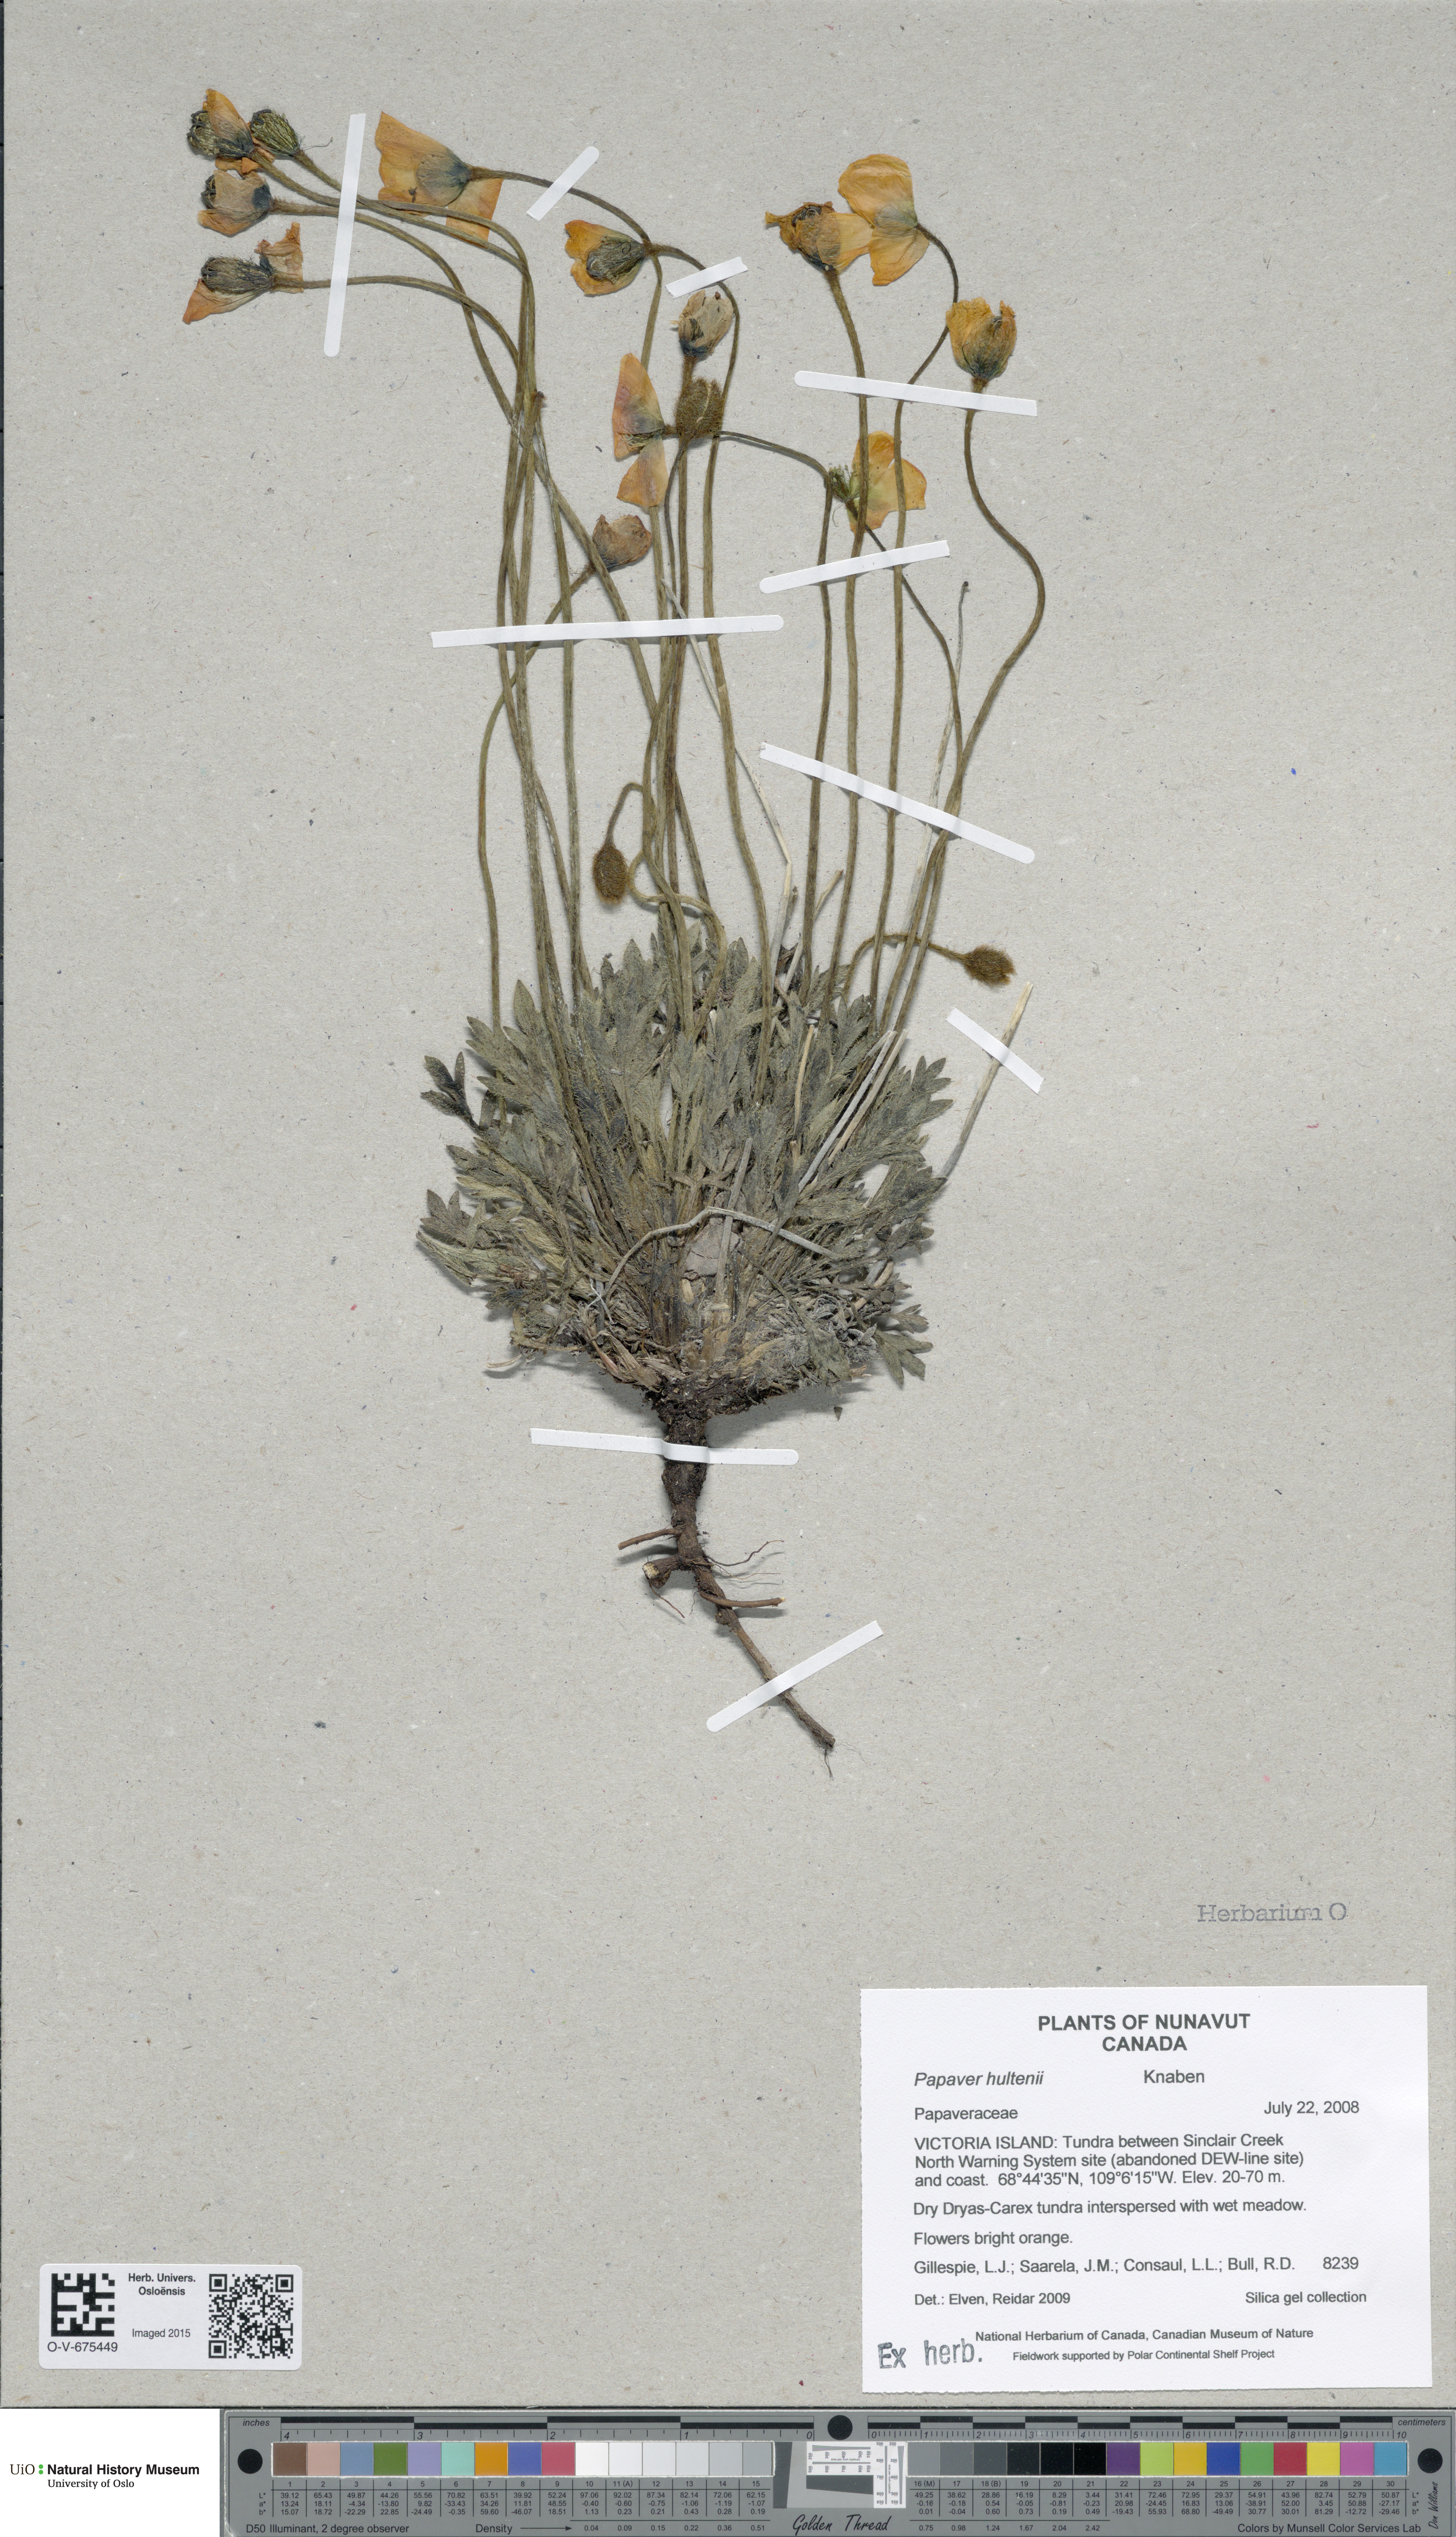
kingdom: Plantae
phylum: Tracheophyta
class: Magnoliopsida
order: Ranunculales
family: Papaveraceae
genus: Papaver
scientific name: Papaver lapponicum
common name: Lapland poppy
